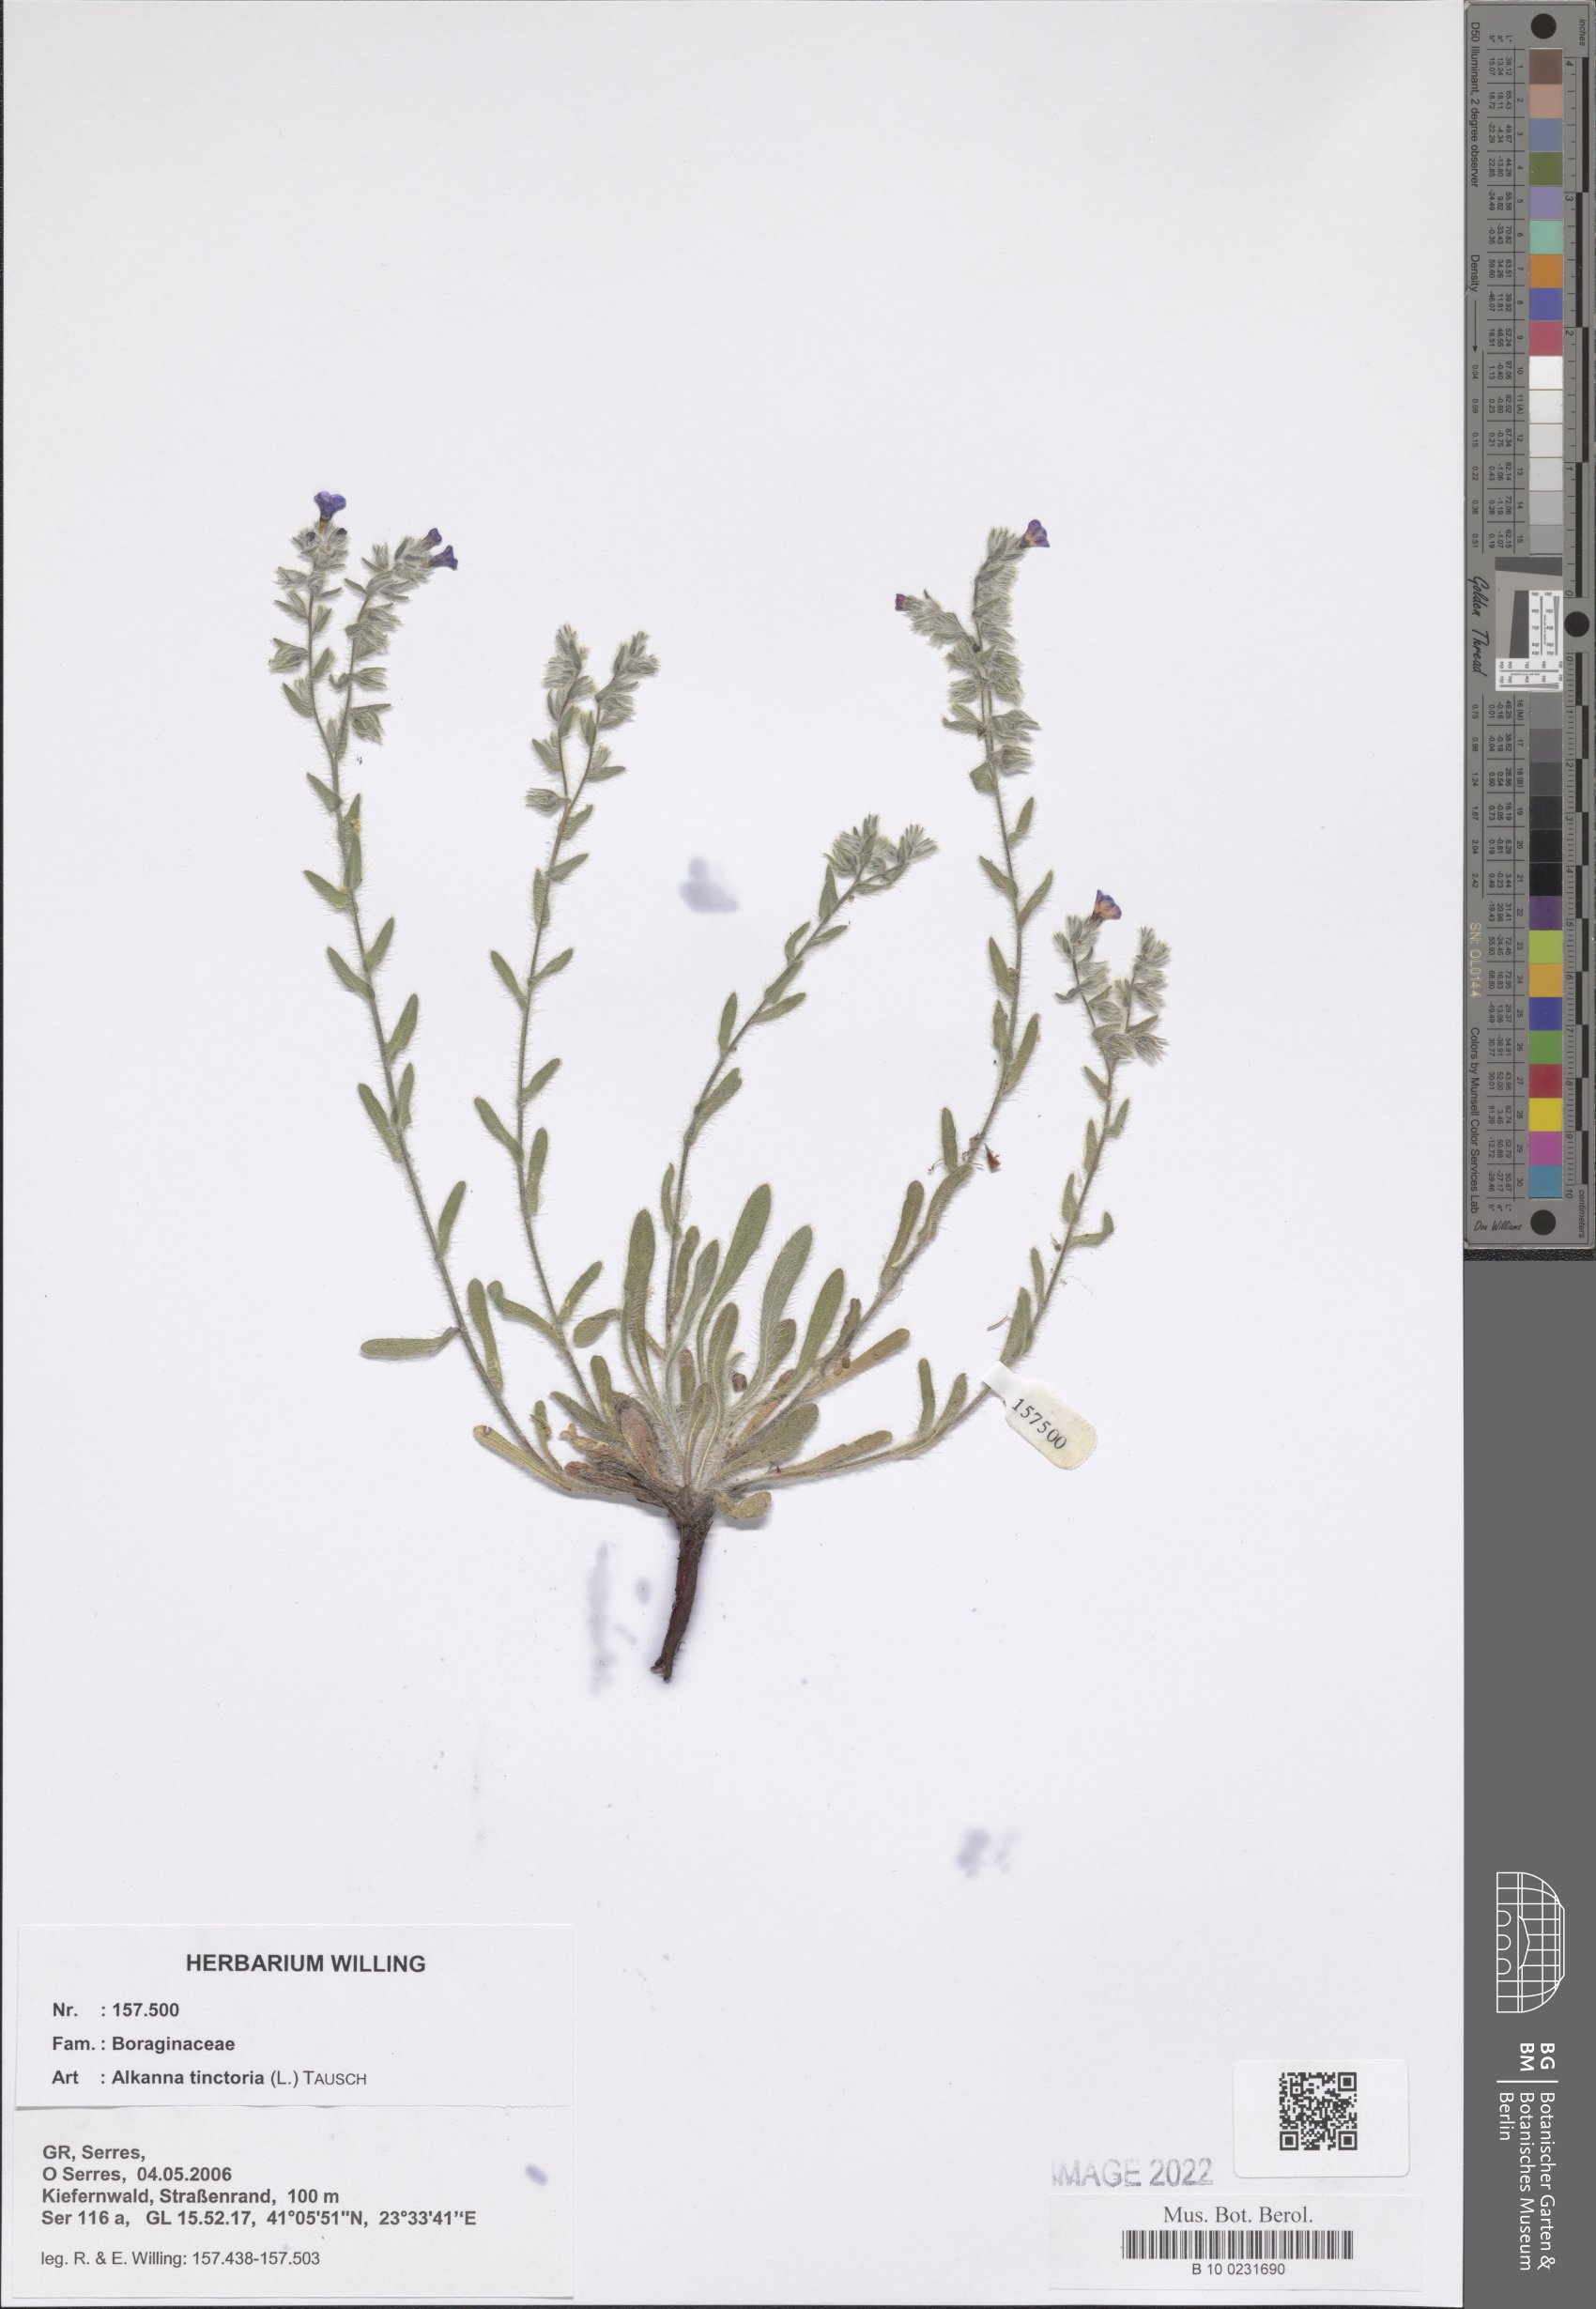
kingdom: Plantae
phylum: Tracheophyta
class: Magnoliopsida
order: Boraginales
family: Boraginaceae
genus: Alkanna
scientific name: Alkanna tinctoria
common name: Dyer's-alkanet
